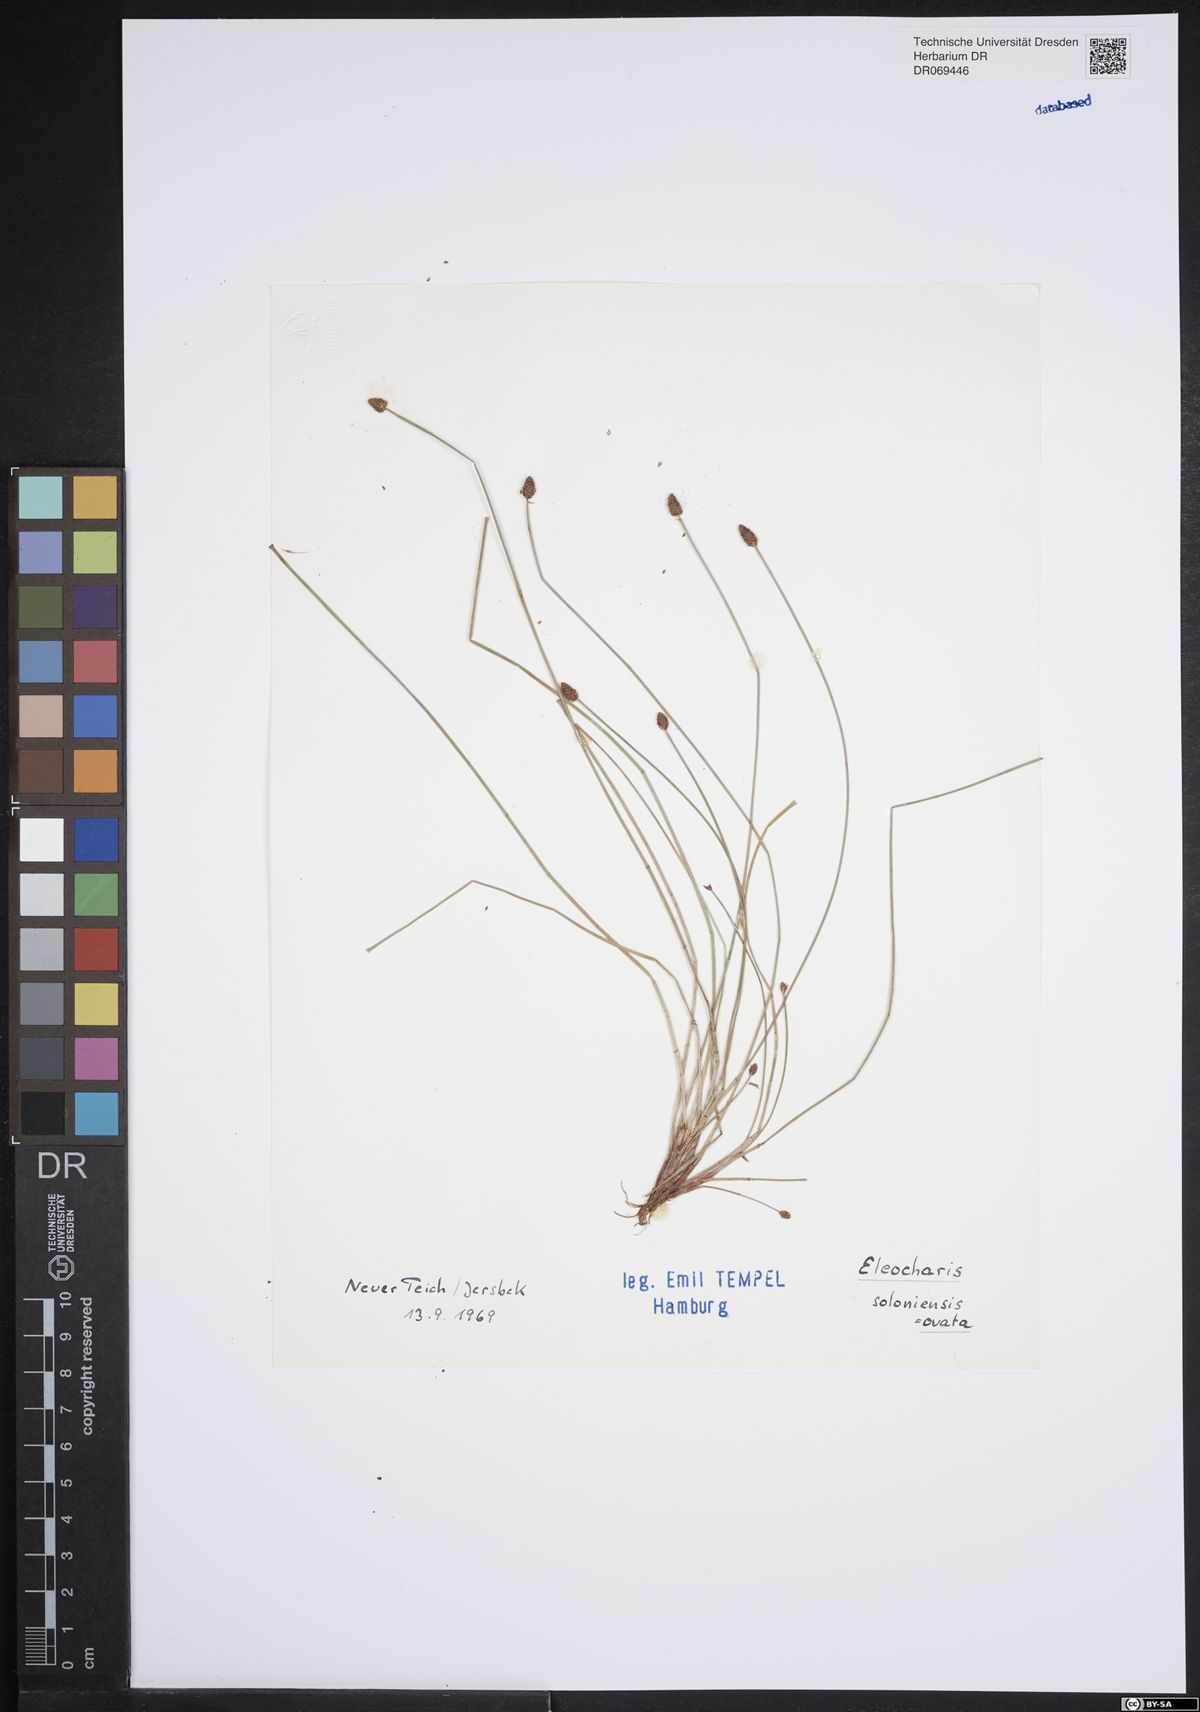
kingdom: Plantae
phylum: Tracheophyta
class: Liliopsida
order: Poales
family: Cyperaceae
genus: Eleocharis
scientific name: Eleocharis ovata
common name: Oval spike-rush
